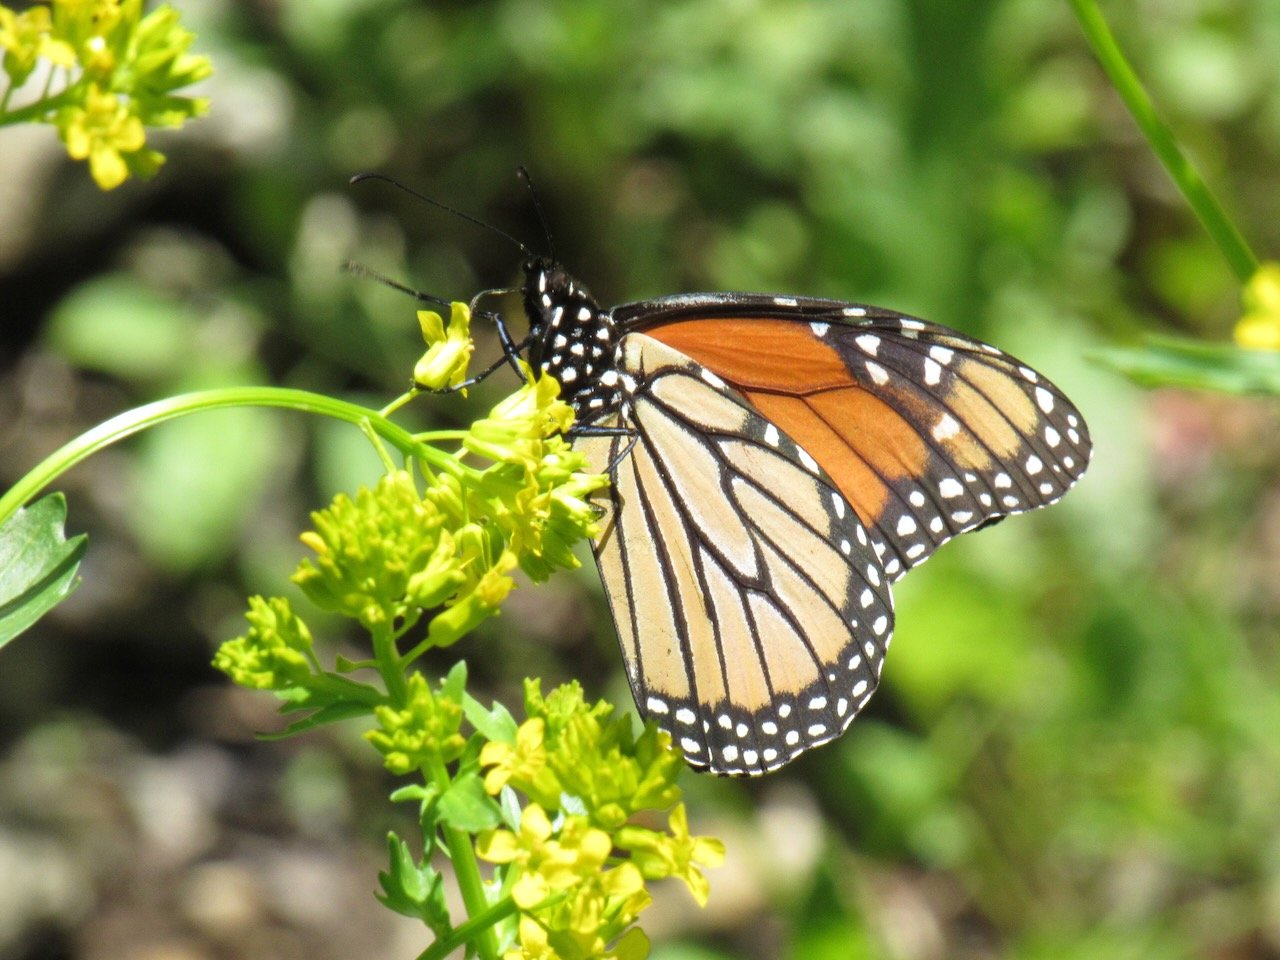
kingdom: Animalia
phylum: Arthropoda
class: Insecta
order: Lepidoptera
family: Nymphalidae
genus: Danaus
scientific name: Danaus plexippus
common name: Monarch
